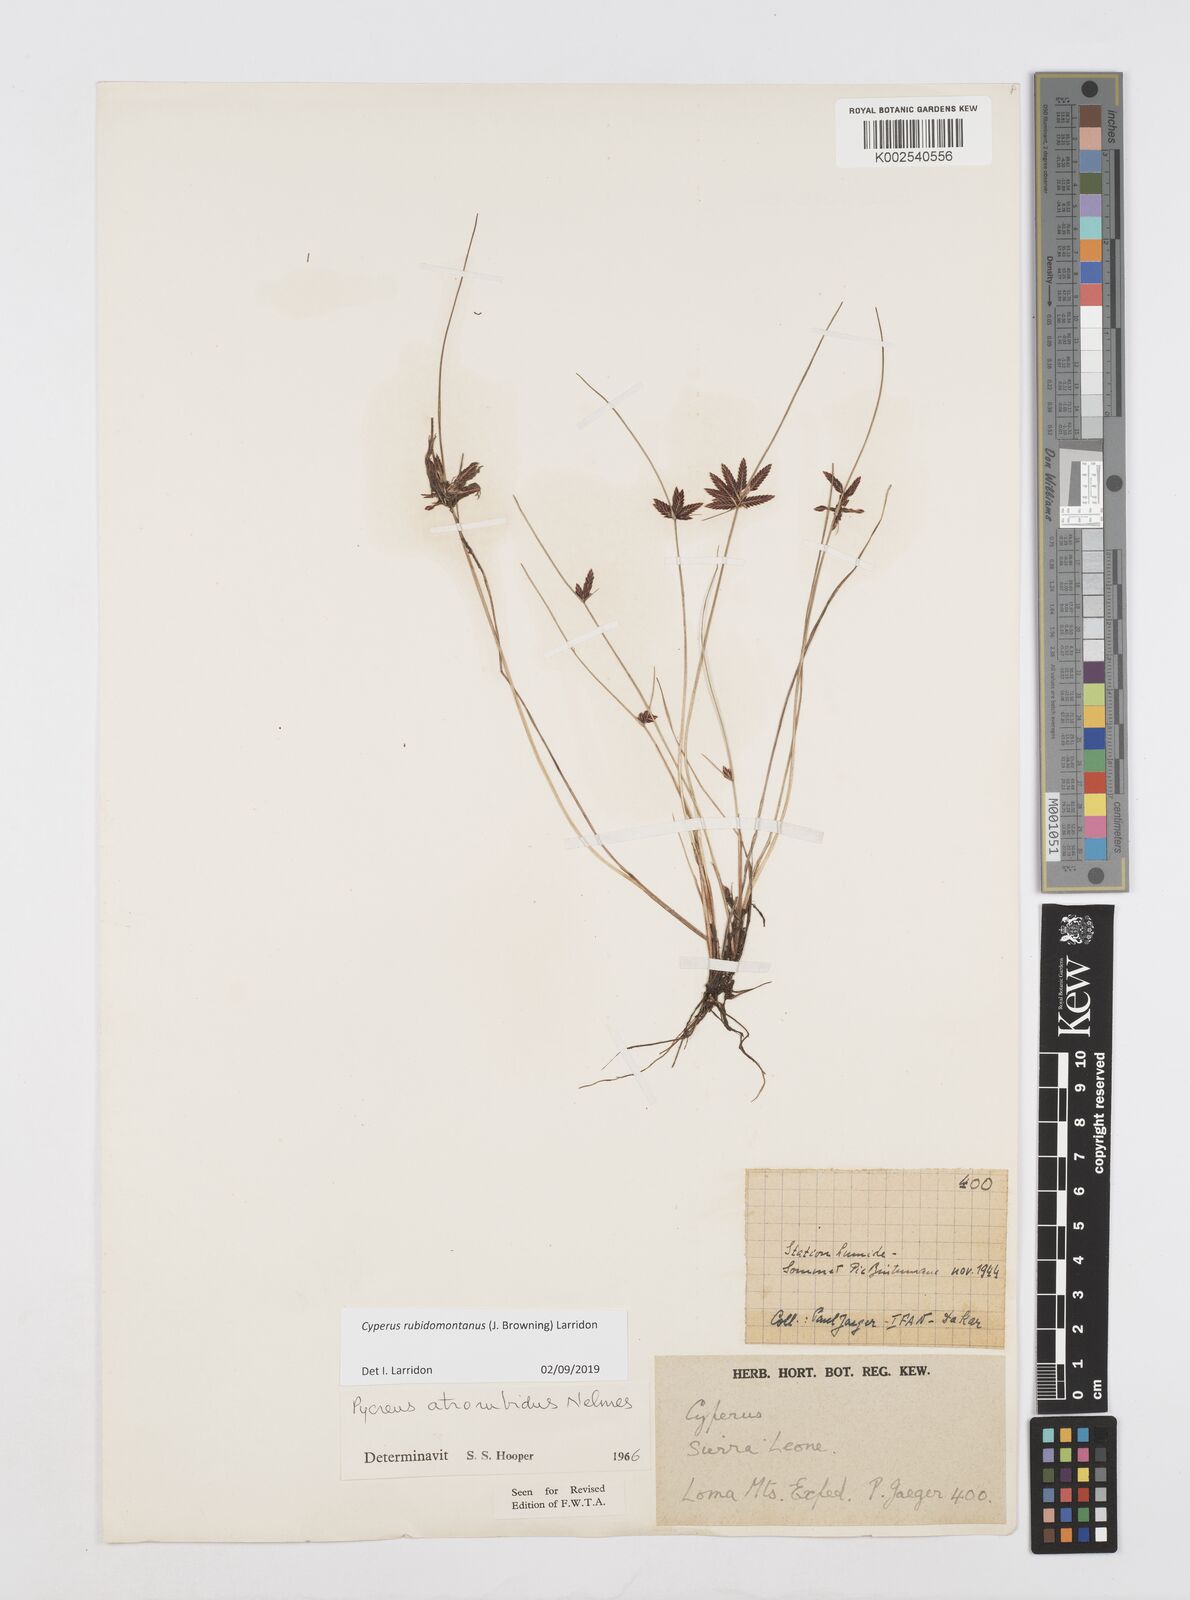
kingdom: Plantae
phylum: Tracheophyta
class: Liliopsida
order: Poales
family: Cyperaceae
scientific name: Cyperaceae
